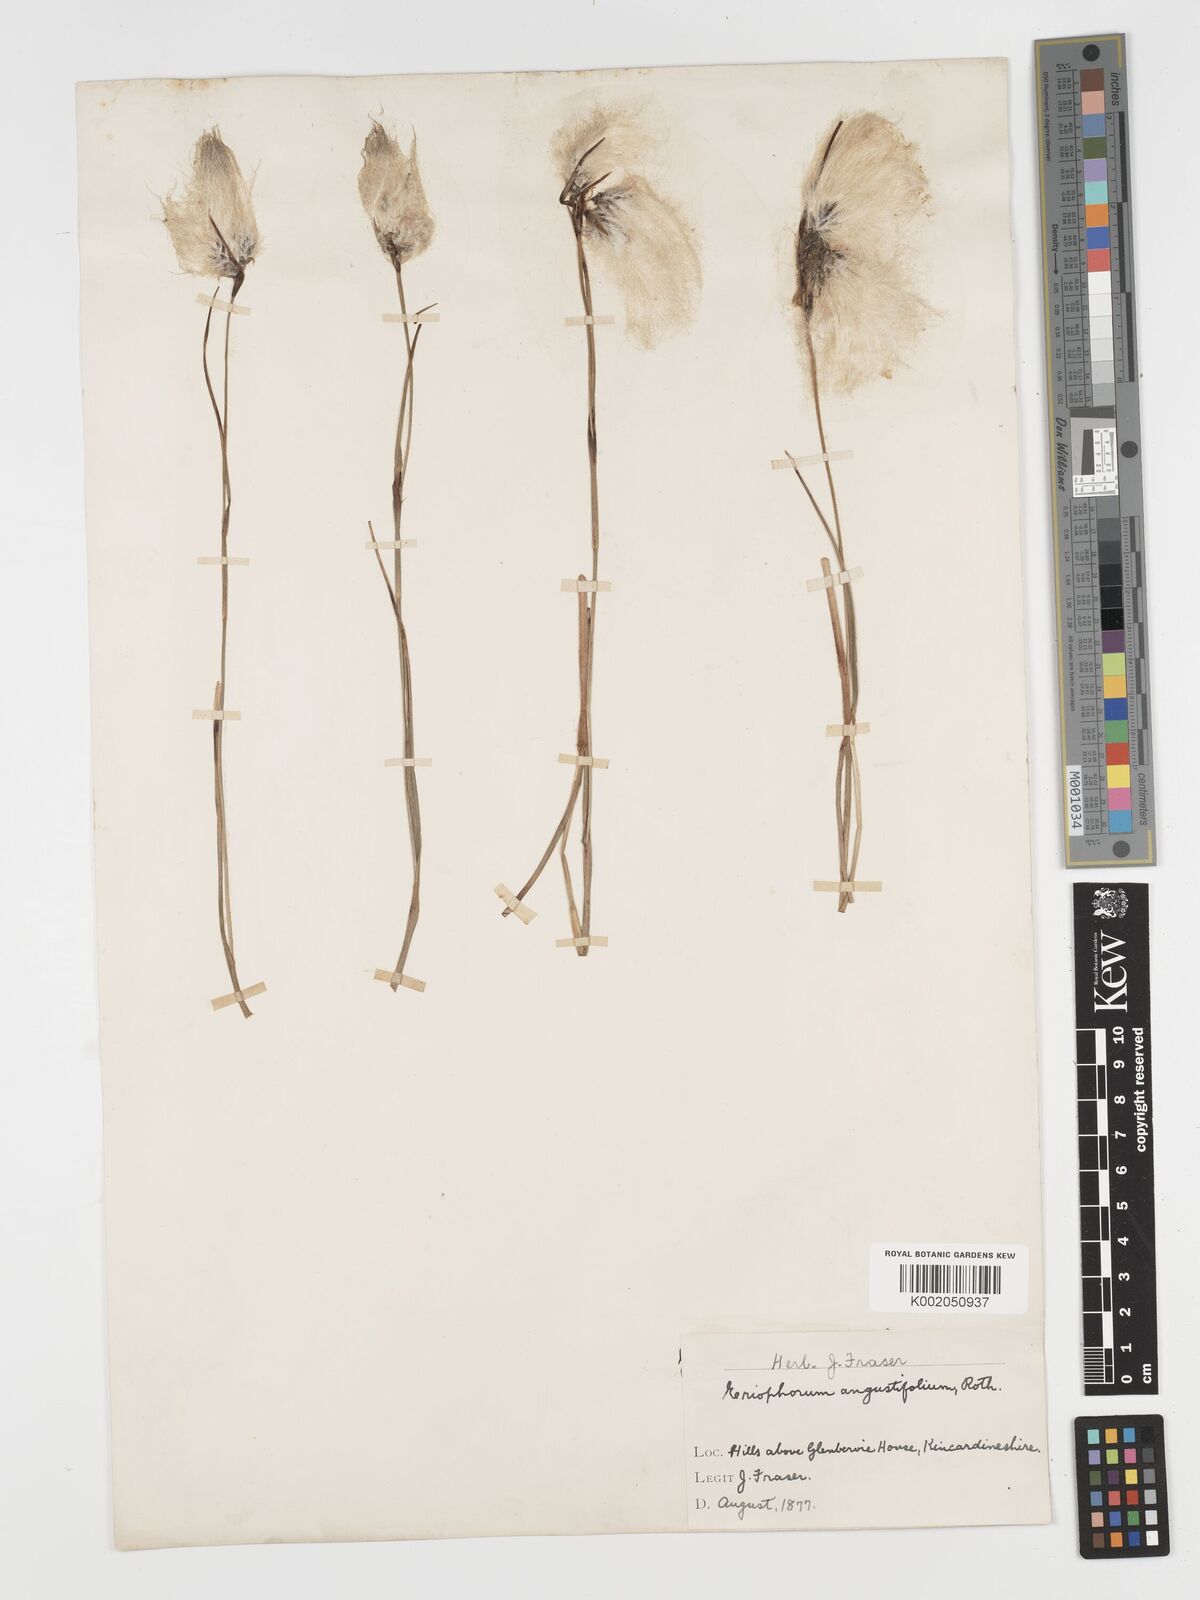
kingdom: Plantae
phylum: Tracheophyta
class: Liliopsida
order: Poales
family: Cyperaceae
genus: Eriophorum
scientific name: Eriophorum angustifolium
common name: Common cottongrass
